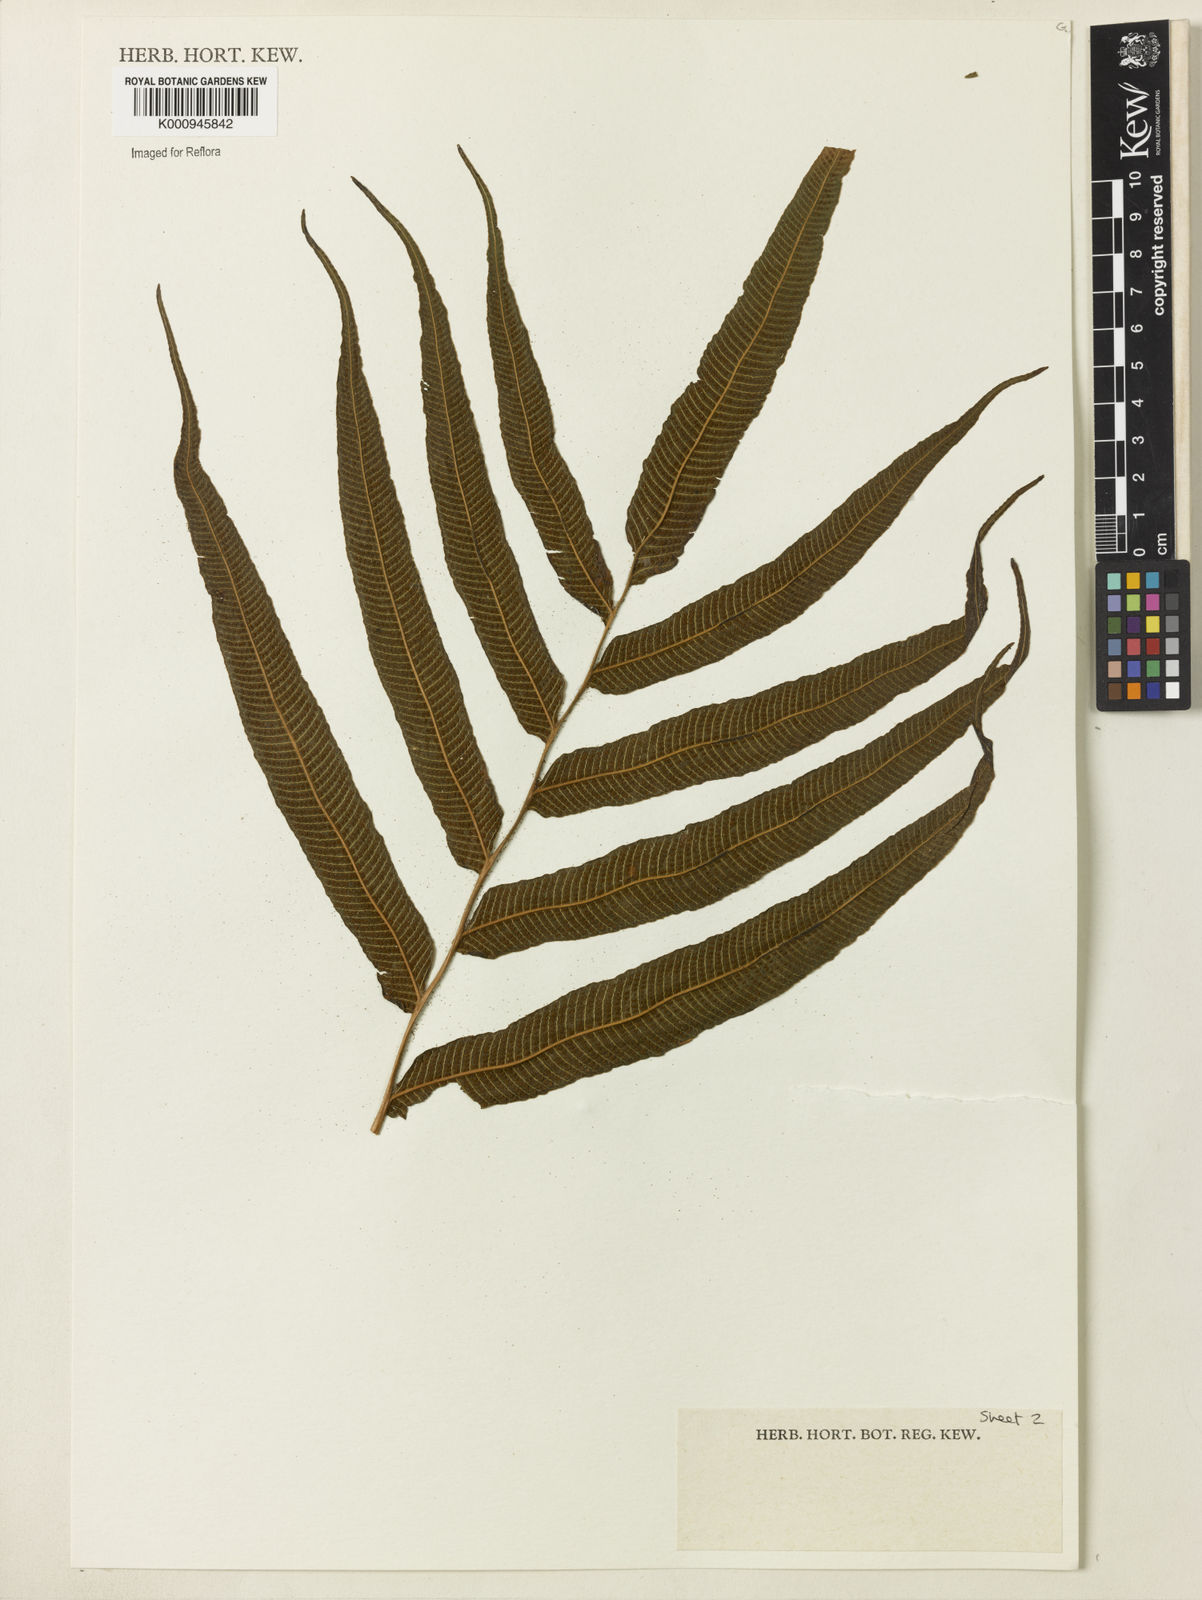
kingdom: Plantae
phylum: Tracheophyta
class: Polypodiopsida
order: Polypodiales
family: Thelypteridaceae
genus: Meniscium
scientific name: Meniscium longifolium
